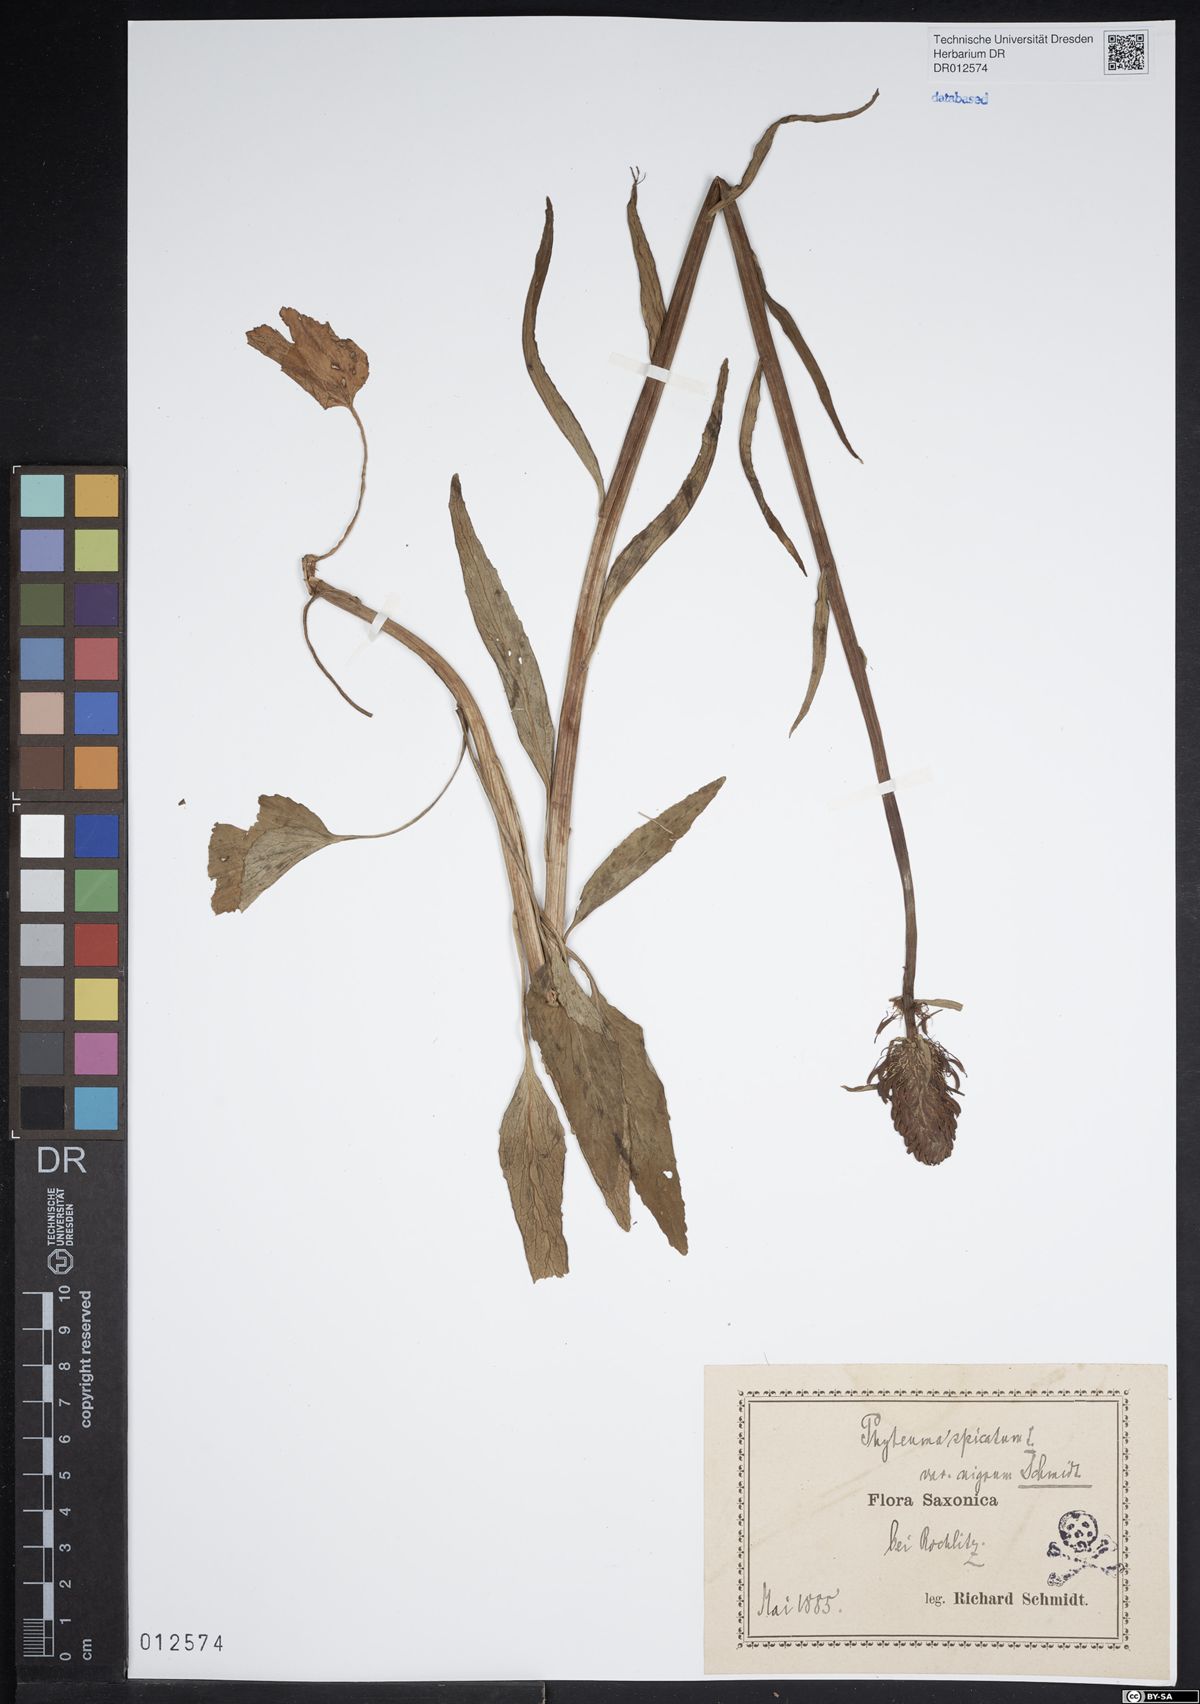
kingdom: Plantae
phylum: Tracheophyta
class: Magnoliopsida
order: Asterales
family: Campanulaceae
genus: Phyteuma
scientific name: Phyteuma nigrum
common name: Black rampion
